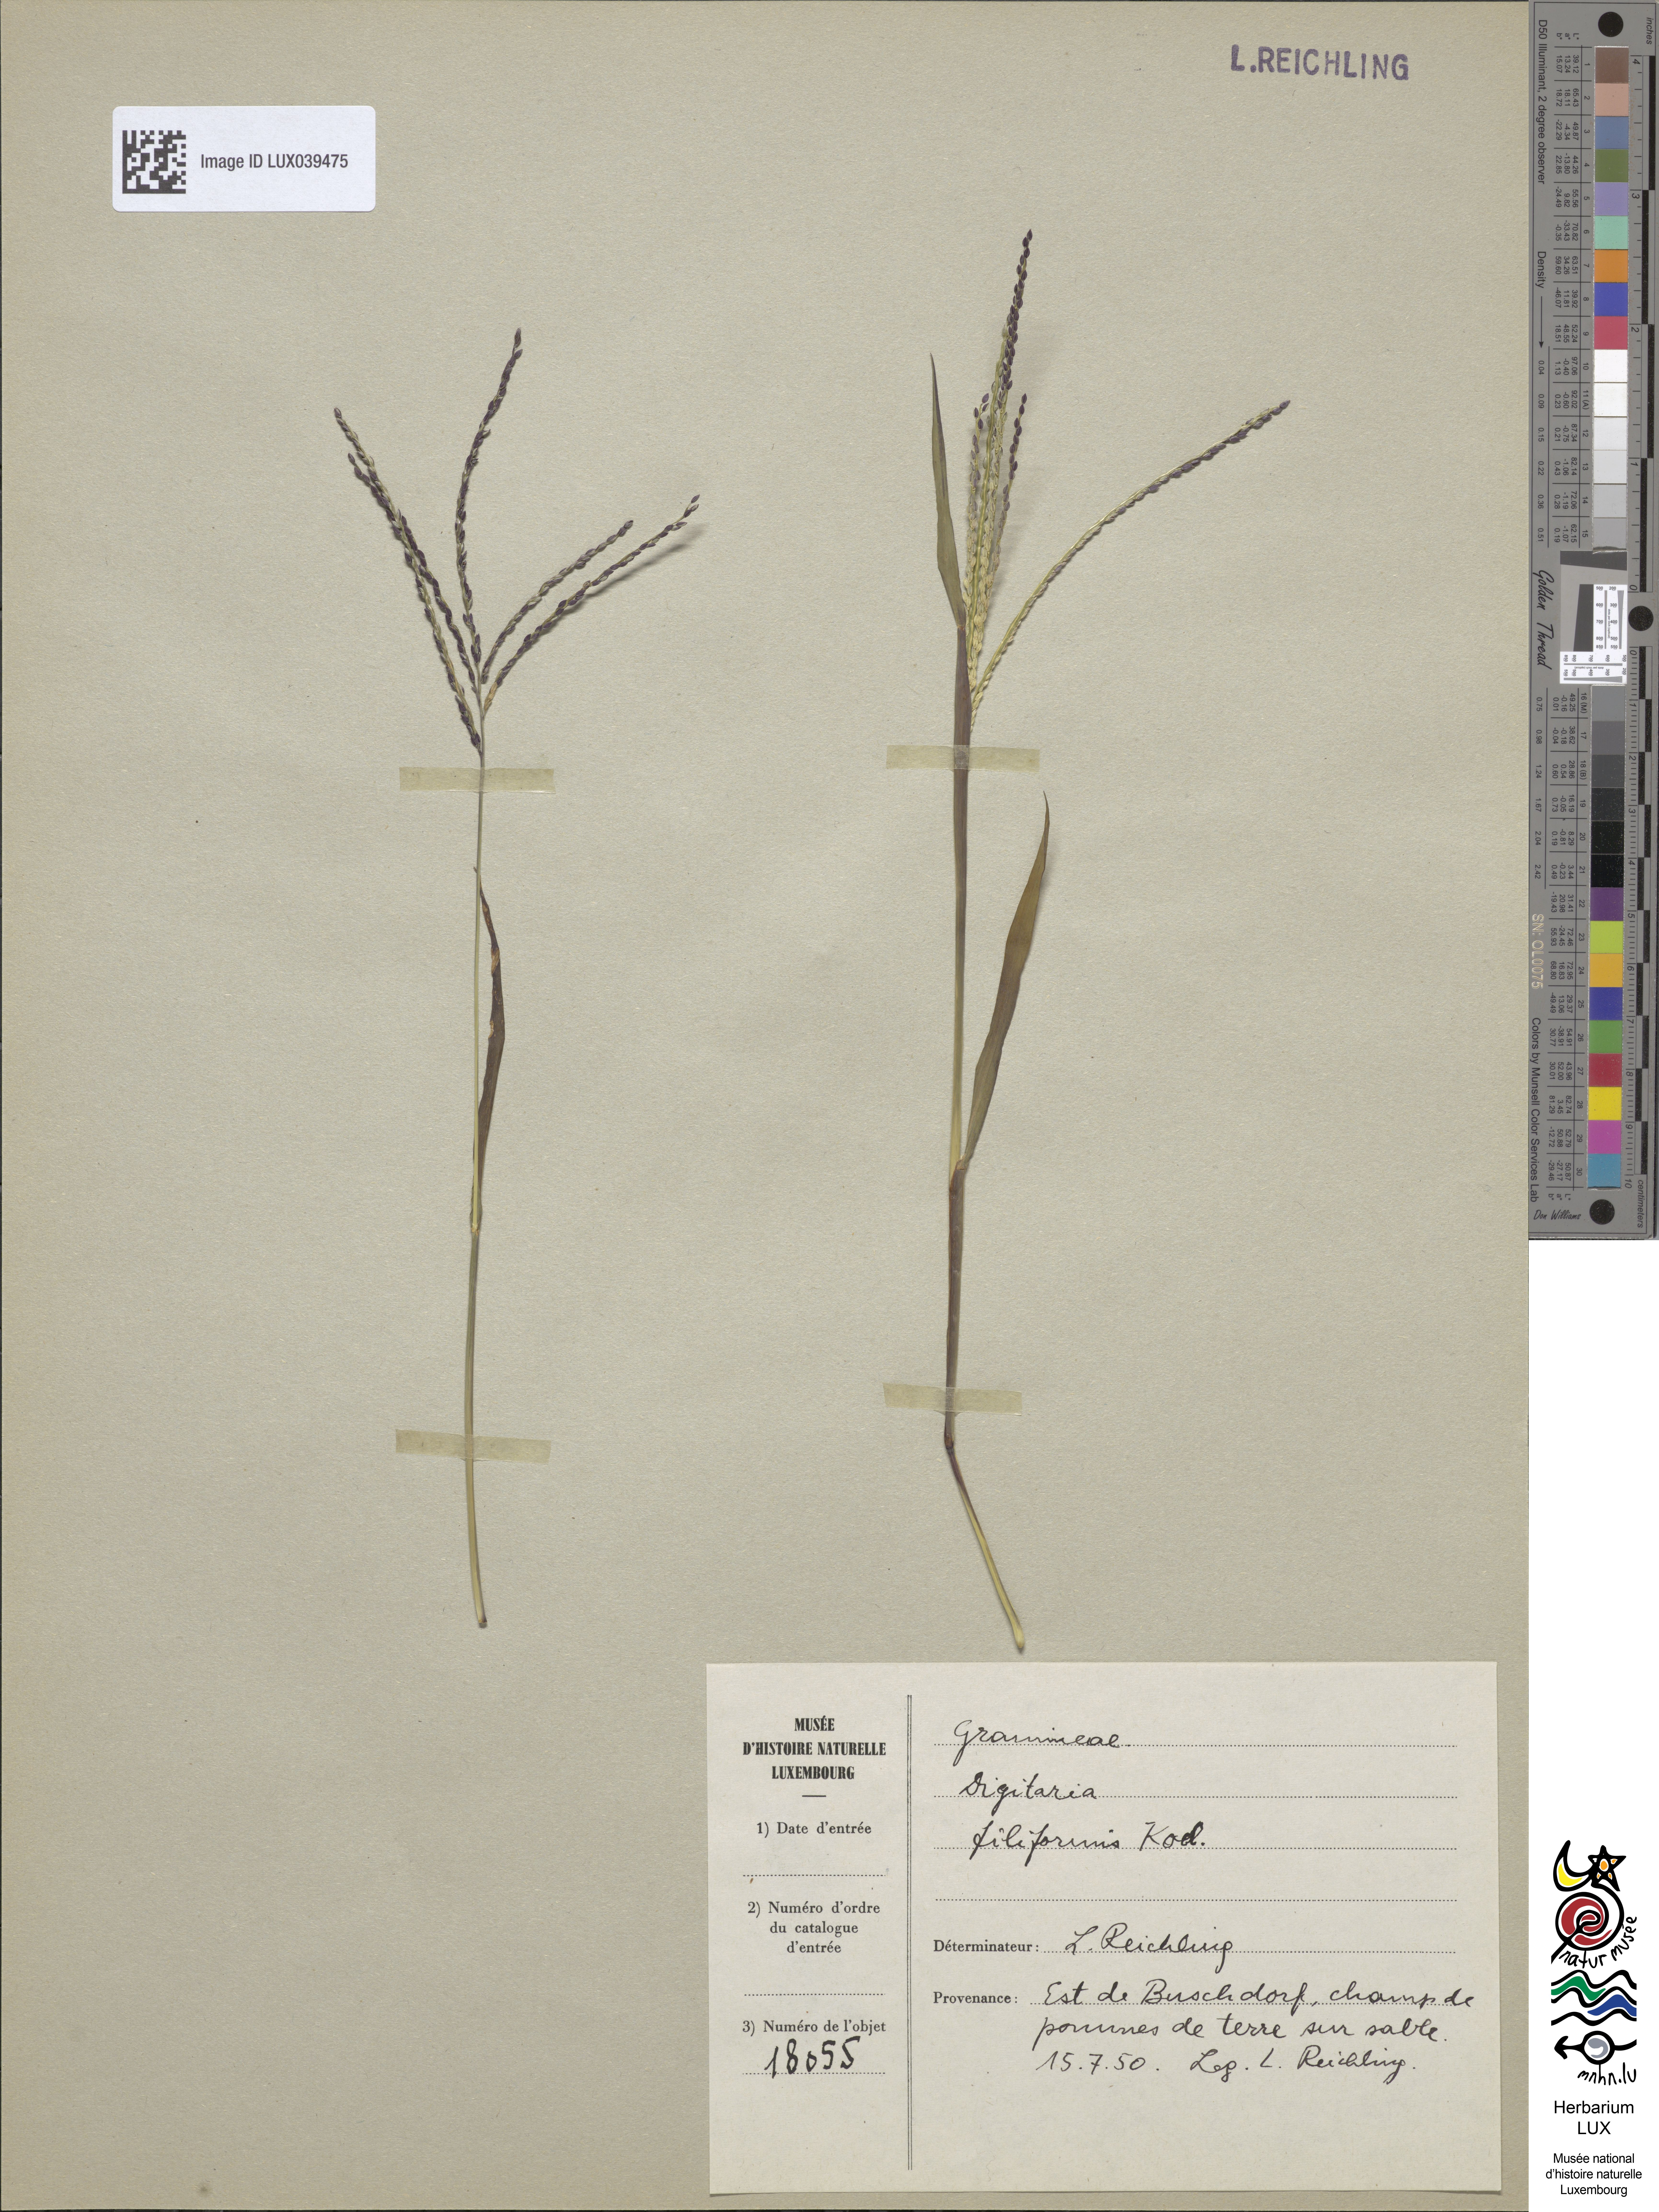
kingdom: Plantae
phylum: Tracheophyta
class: Liliopsida
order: Poales
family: Poaceae
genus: Digitaria
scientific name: Digitaria ischaemum
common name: Smooth crabgrass
